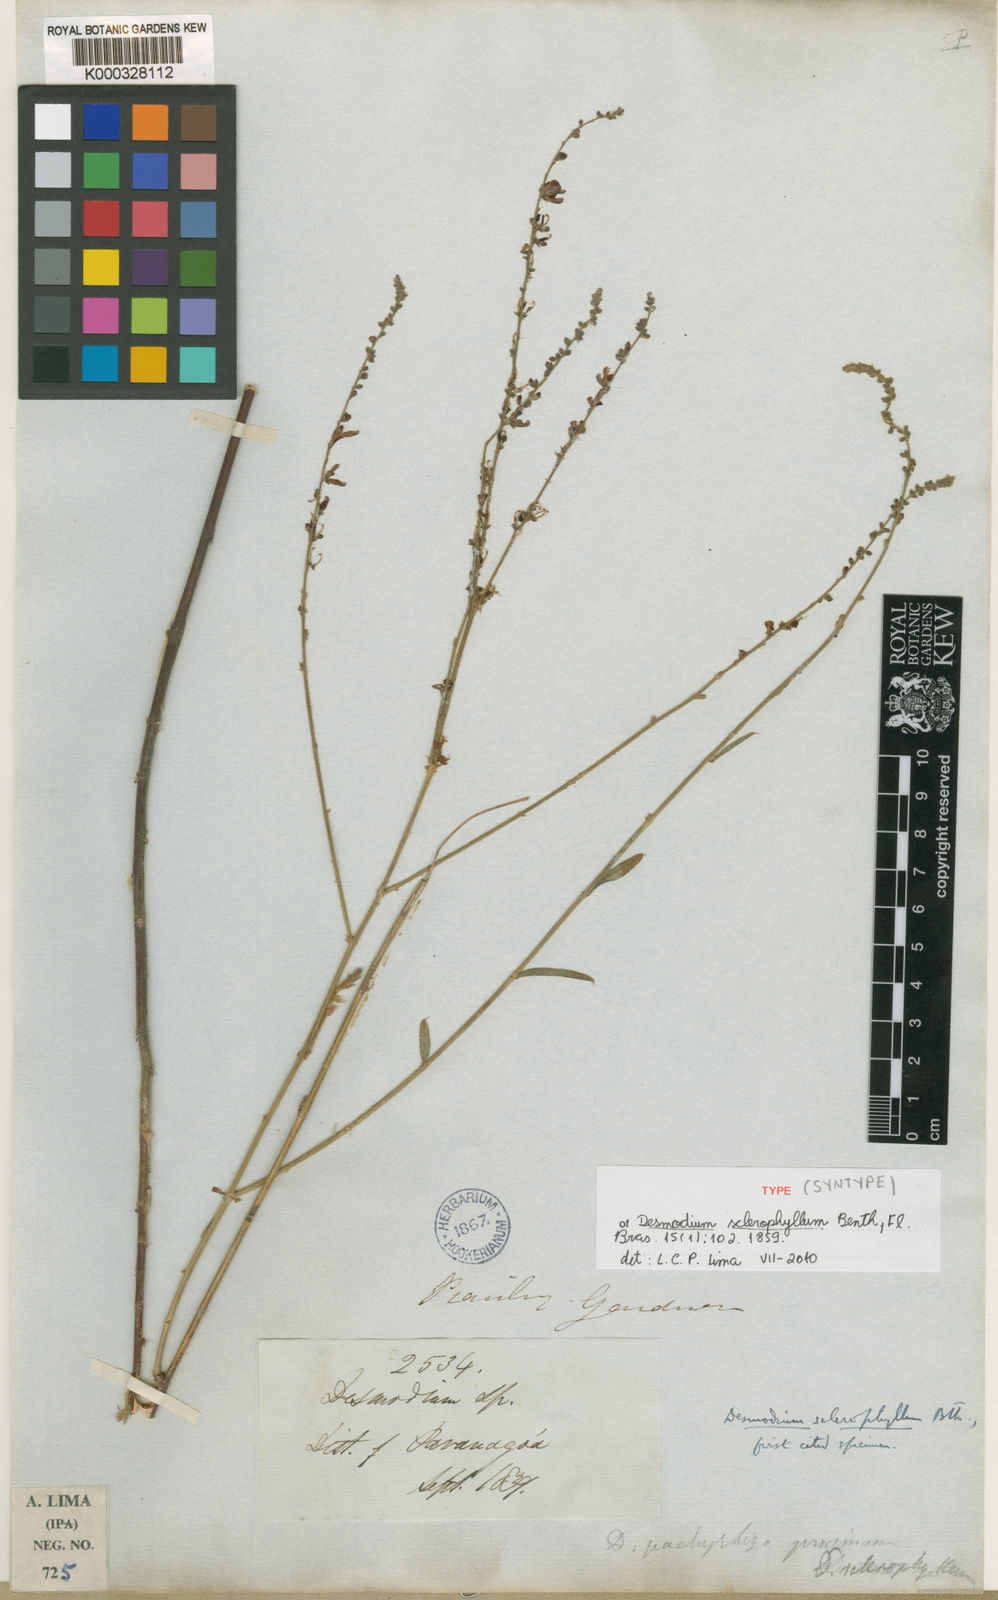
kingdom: Plantae
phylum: Tracheophyta
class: Magnoliopsida
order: Fabales
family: Fabaceae
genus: Desmodium
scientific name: Desmodium sclerophyllum
